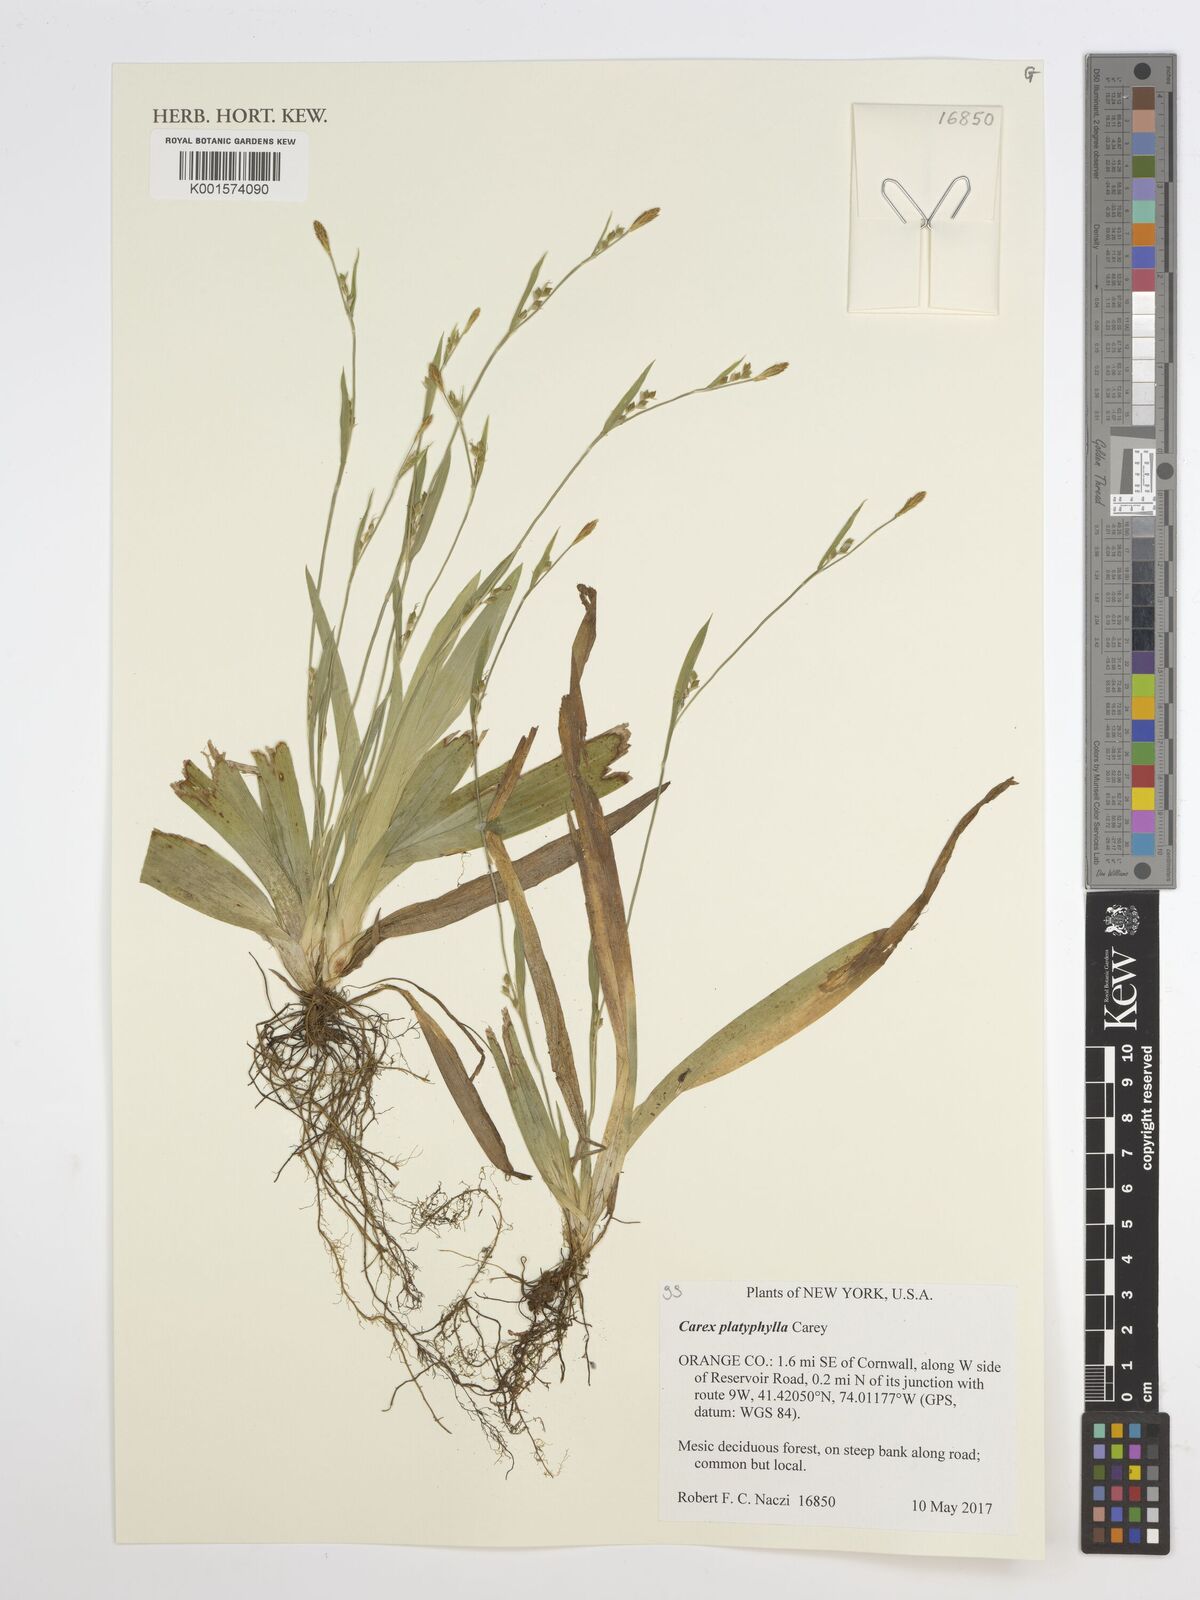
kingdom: Plantae
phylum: Tracheophyta
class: Liliopsida
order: Poales
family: Cyperaceae
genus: Carex
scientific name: Carex platyphylla
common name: Broad-leaved sedge
